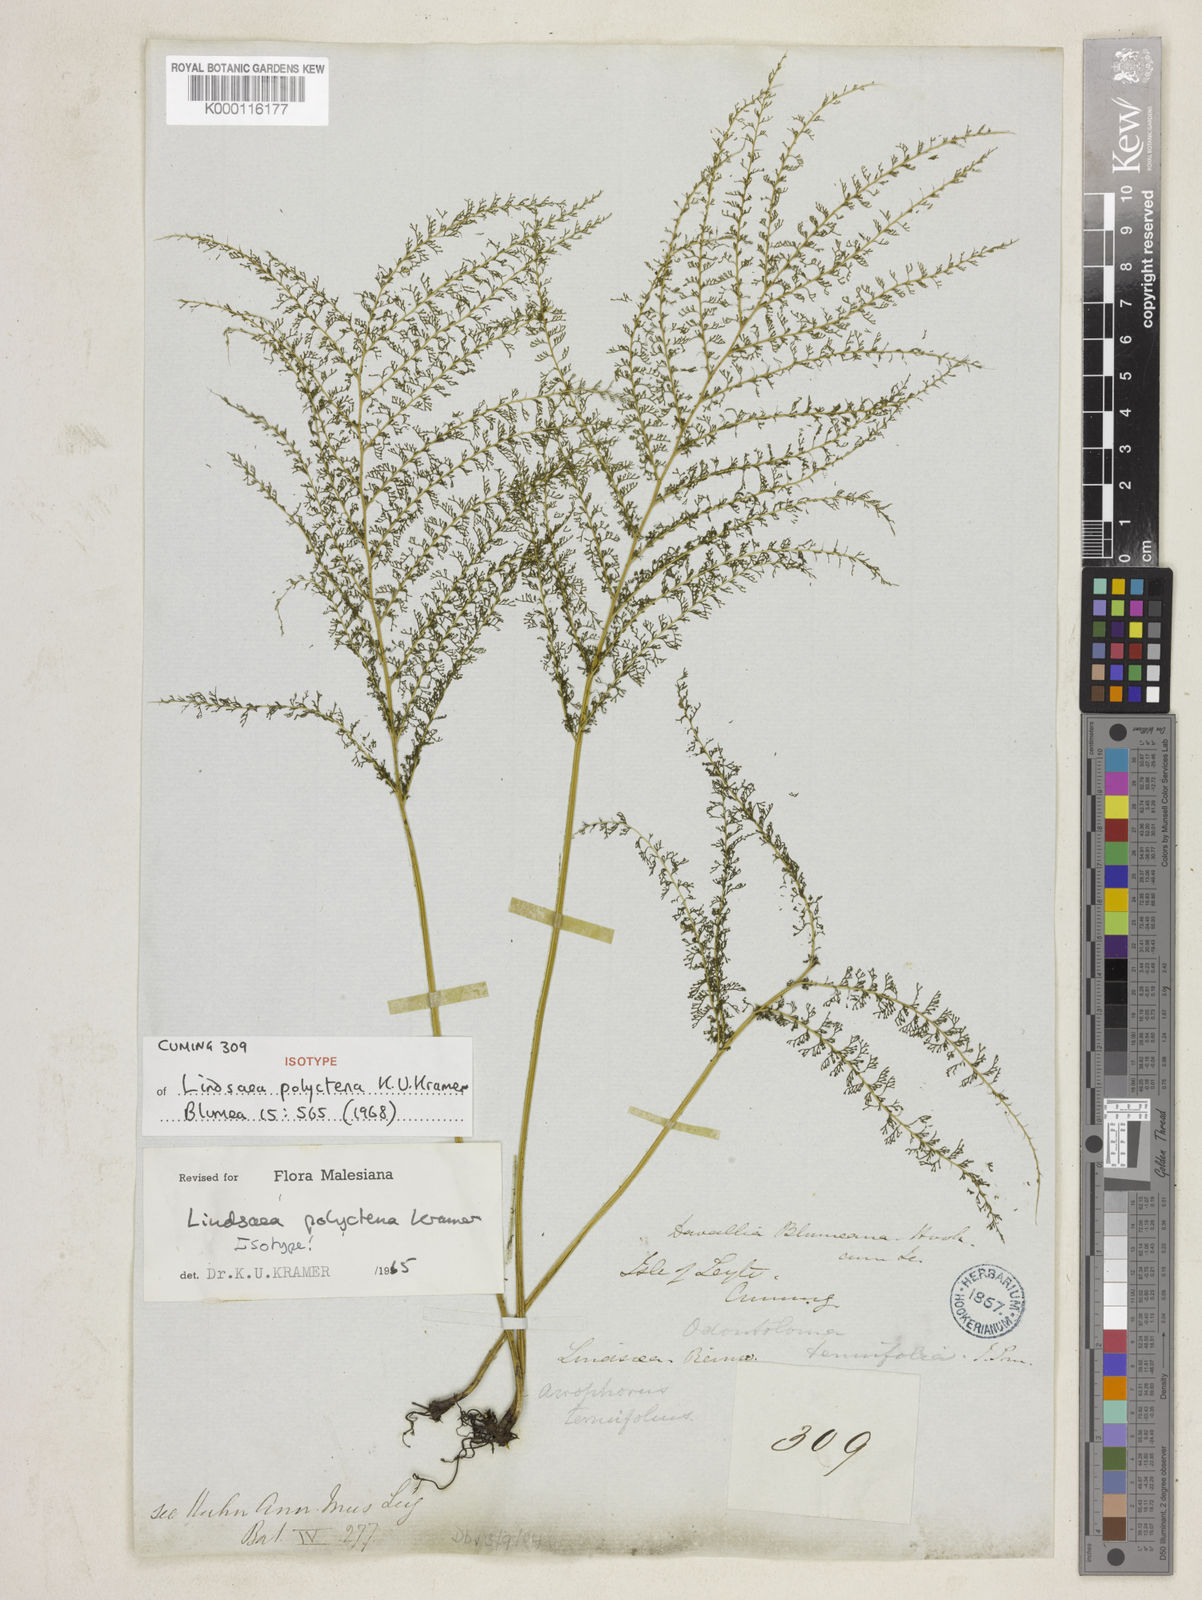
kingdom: Plantae
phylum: Tracheophyta
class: Polypodiopsida
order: Polypodiales
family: Lindsaeaceae
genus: Lindsaea
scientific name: Lindsaea tenuifolia
